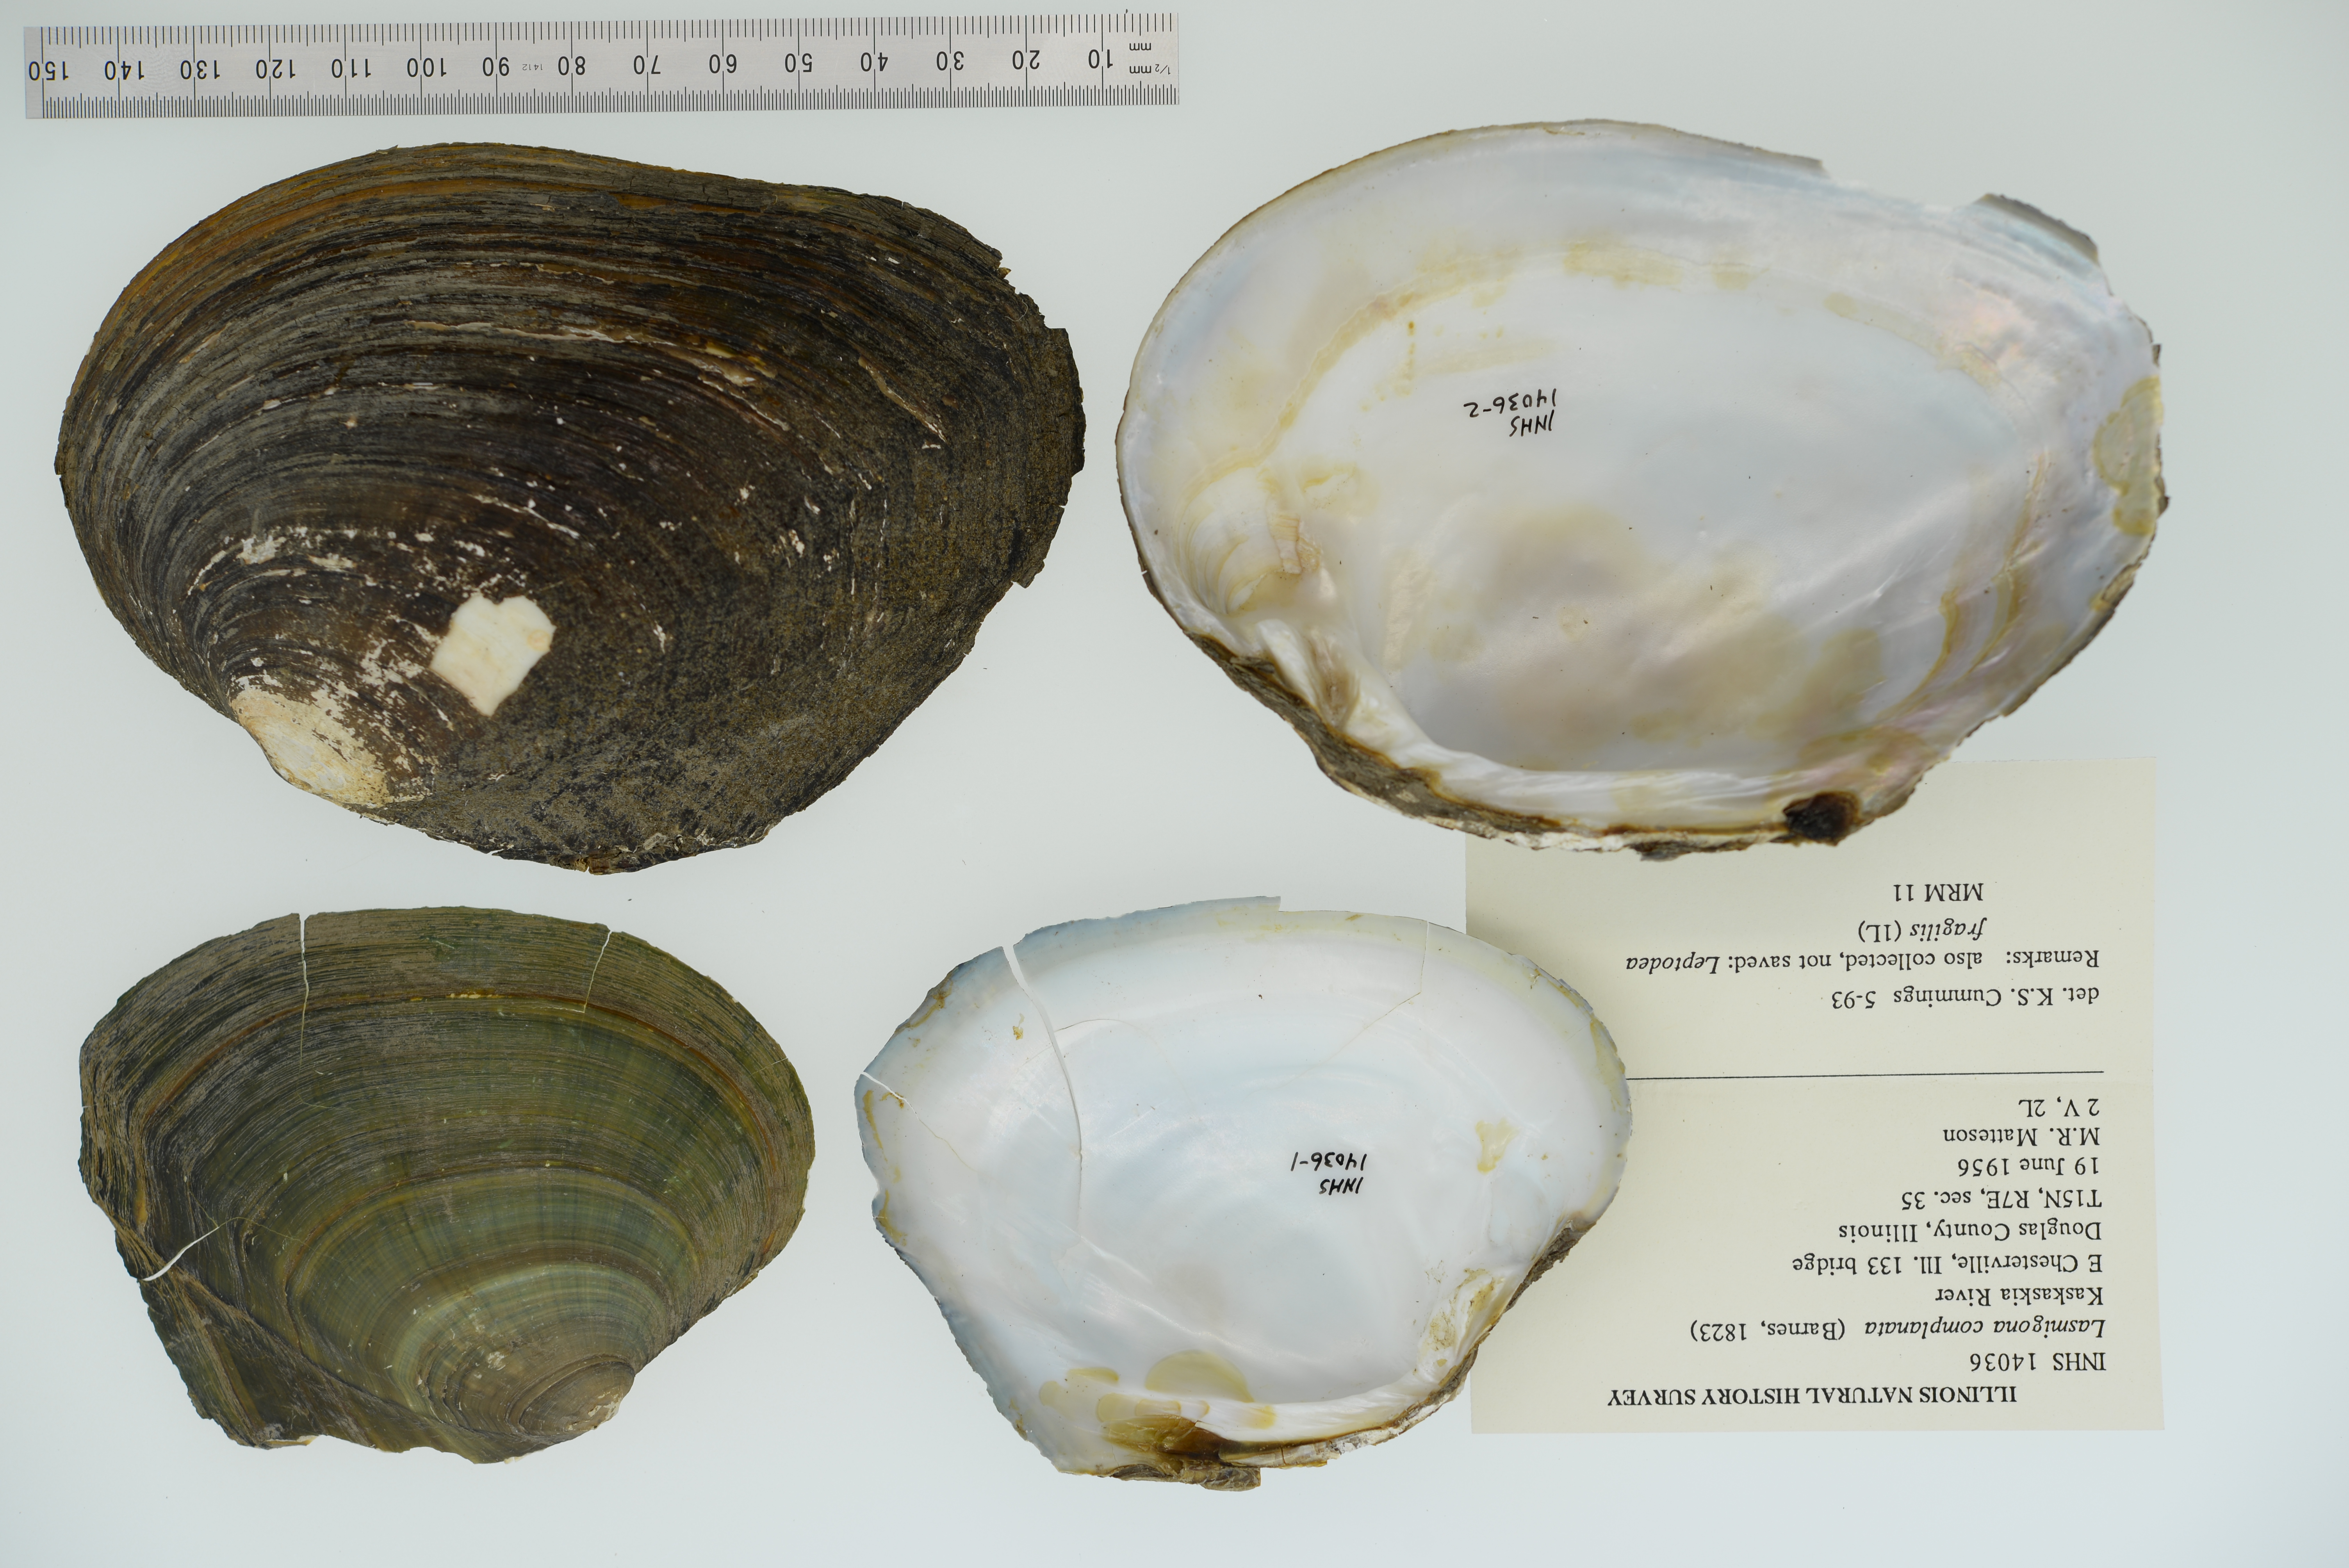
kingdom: Animalia
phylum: Mollusca
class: Bivalvia
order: Unionida
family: Unionidae
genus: Lasmigona
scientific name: Lasmigona complanata
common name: White heelsplitter
